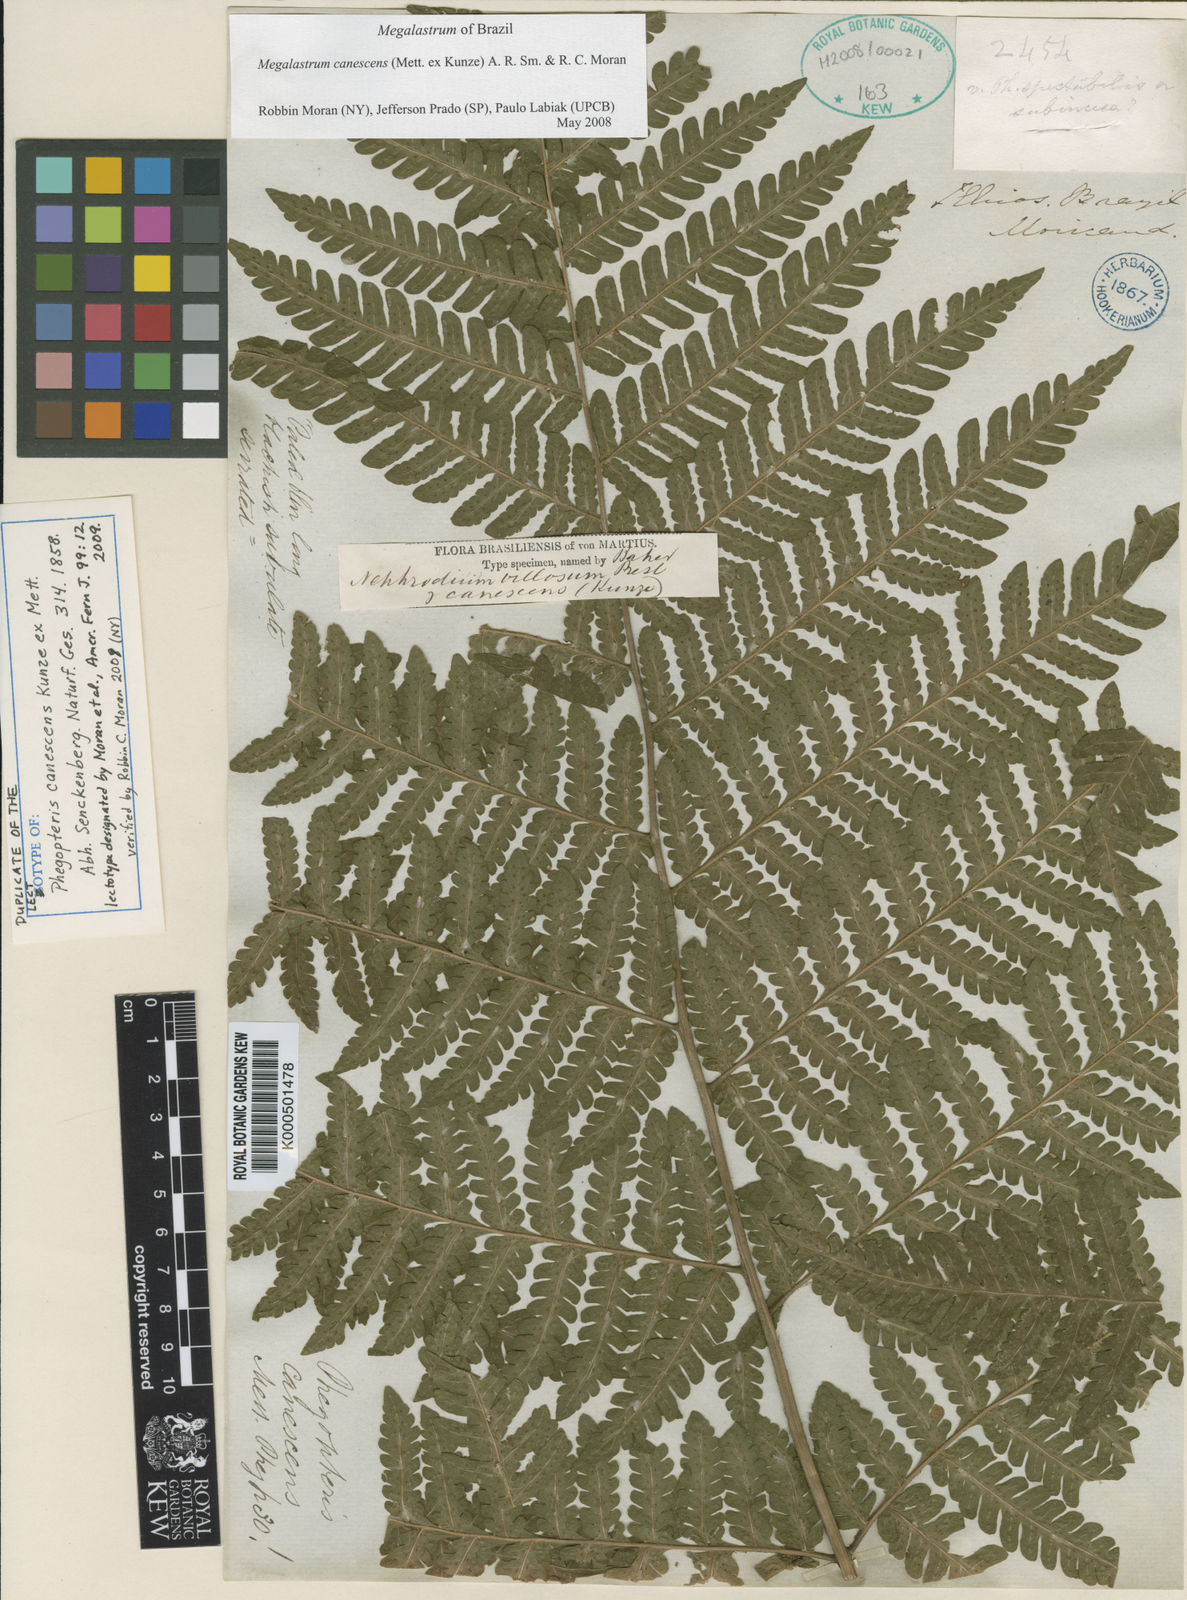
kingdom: Plantae
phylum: Tracheophyta
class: Polypodiopsida
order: Polypodiales
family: Dryopteridaceae
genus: Megalastrum
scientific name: Megalastrum canescens
